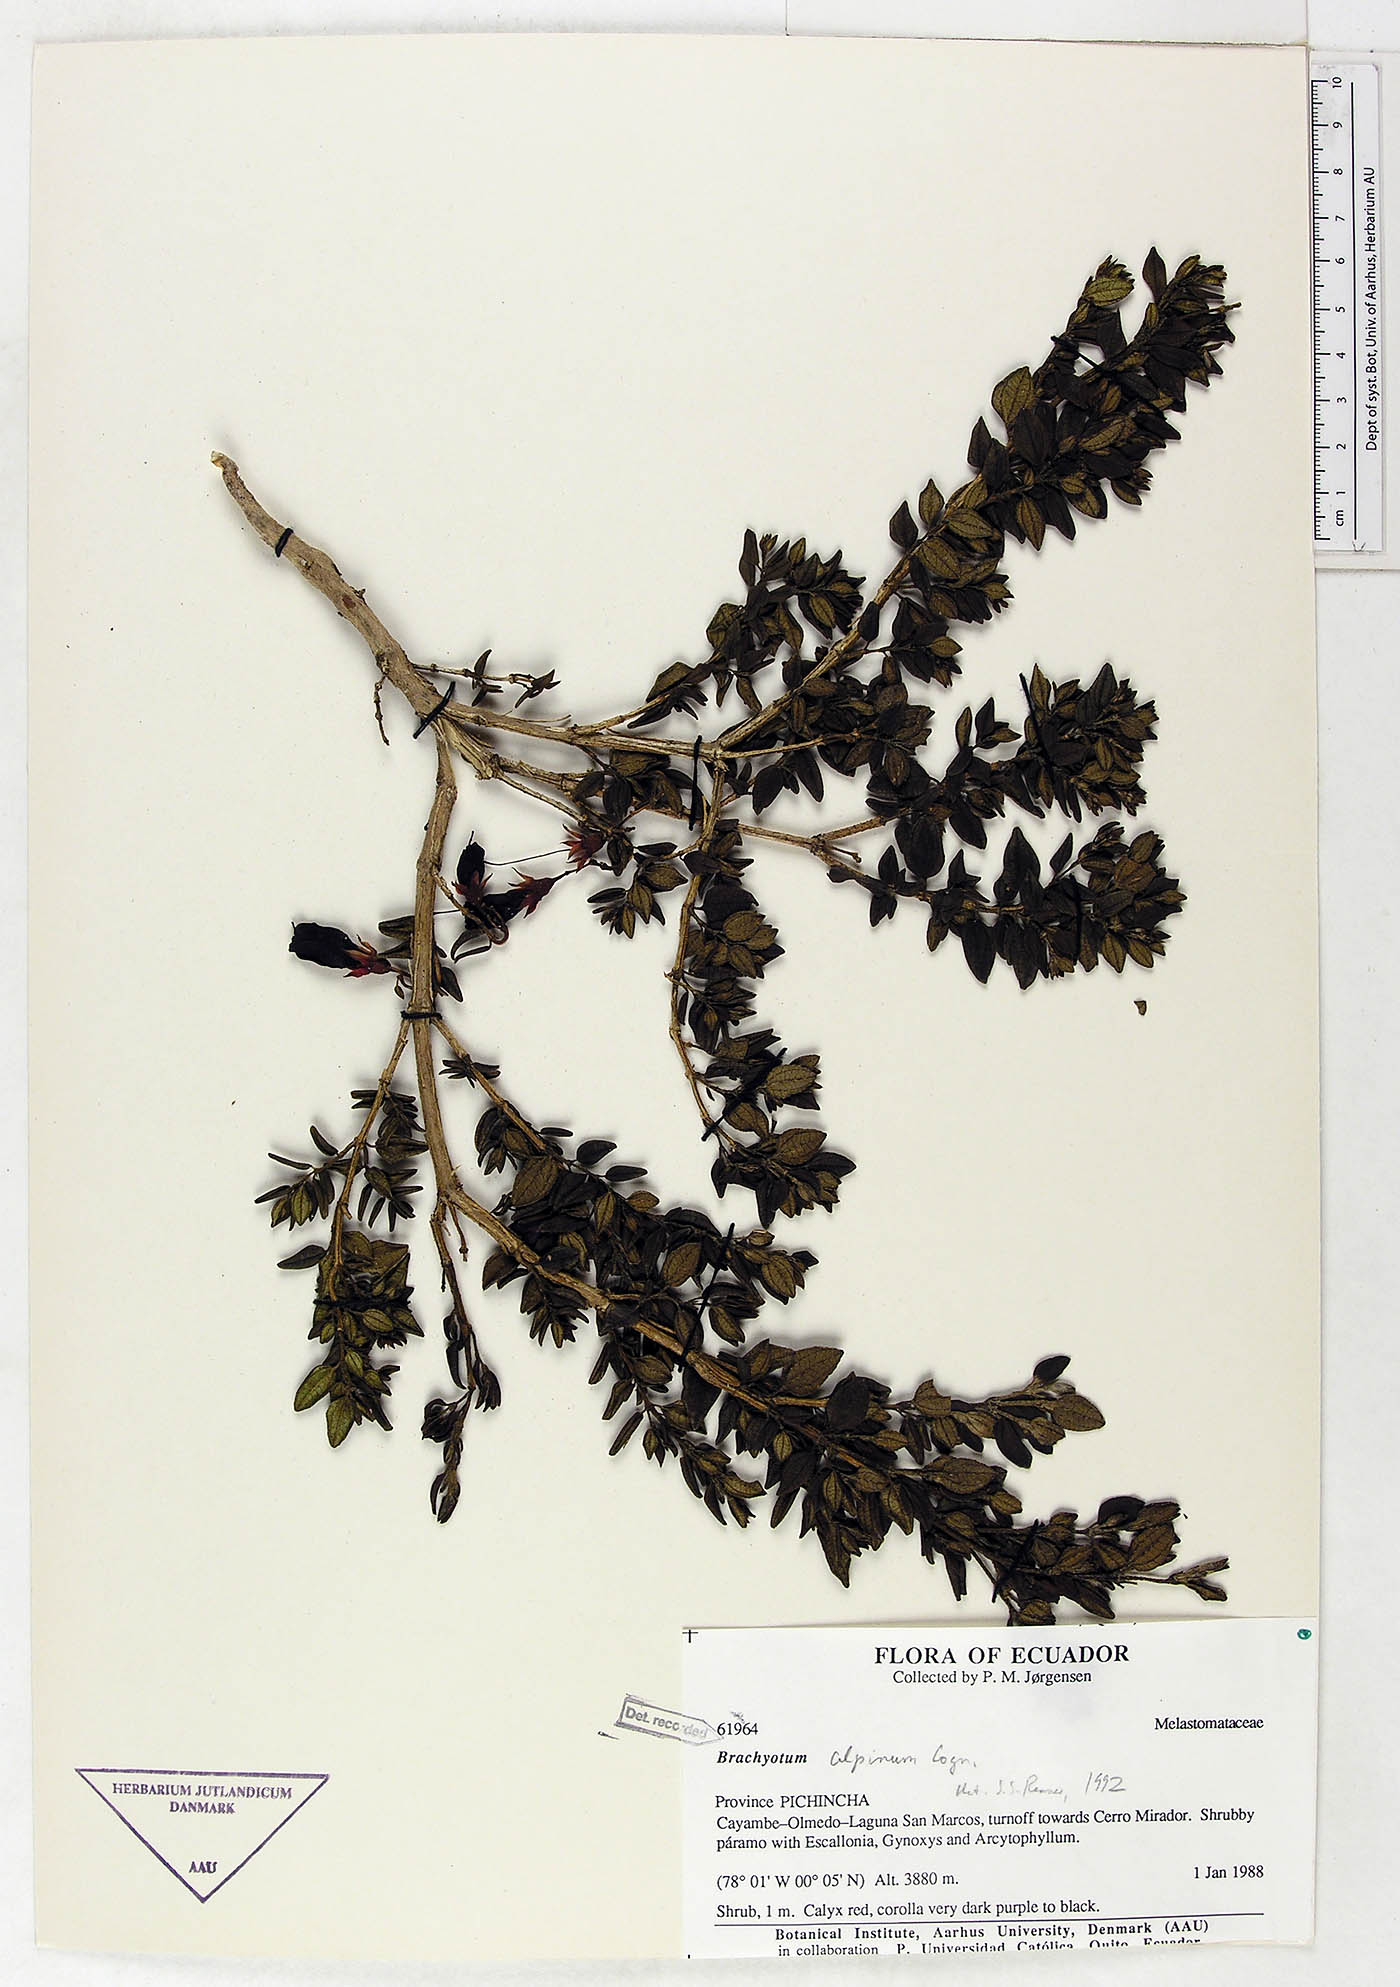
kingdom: Plantae
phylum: Tracheophyta
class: Magnoliopsida
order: Myrtales
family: Melastomataceae
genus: Brachyotum
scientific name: Brachyotum alpinum
